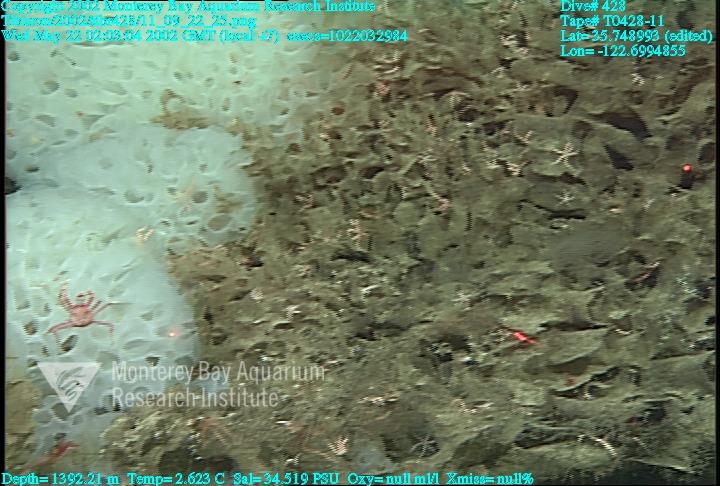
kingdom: Animalia
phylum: Porifera
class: Hexactinellida
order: Sceptrulophora
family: Farreidae
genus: Farrea
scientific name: Farrea occa
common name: Reversed glass sponge
